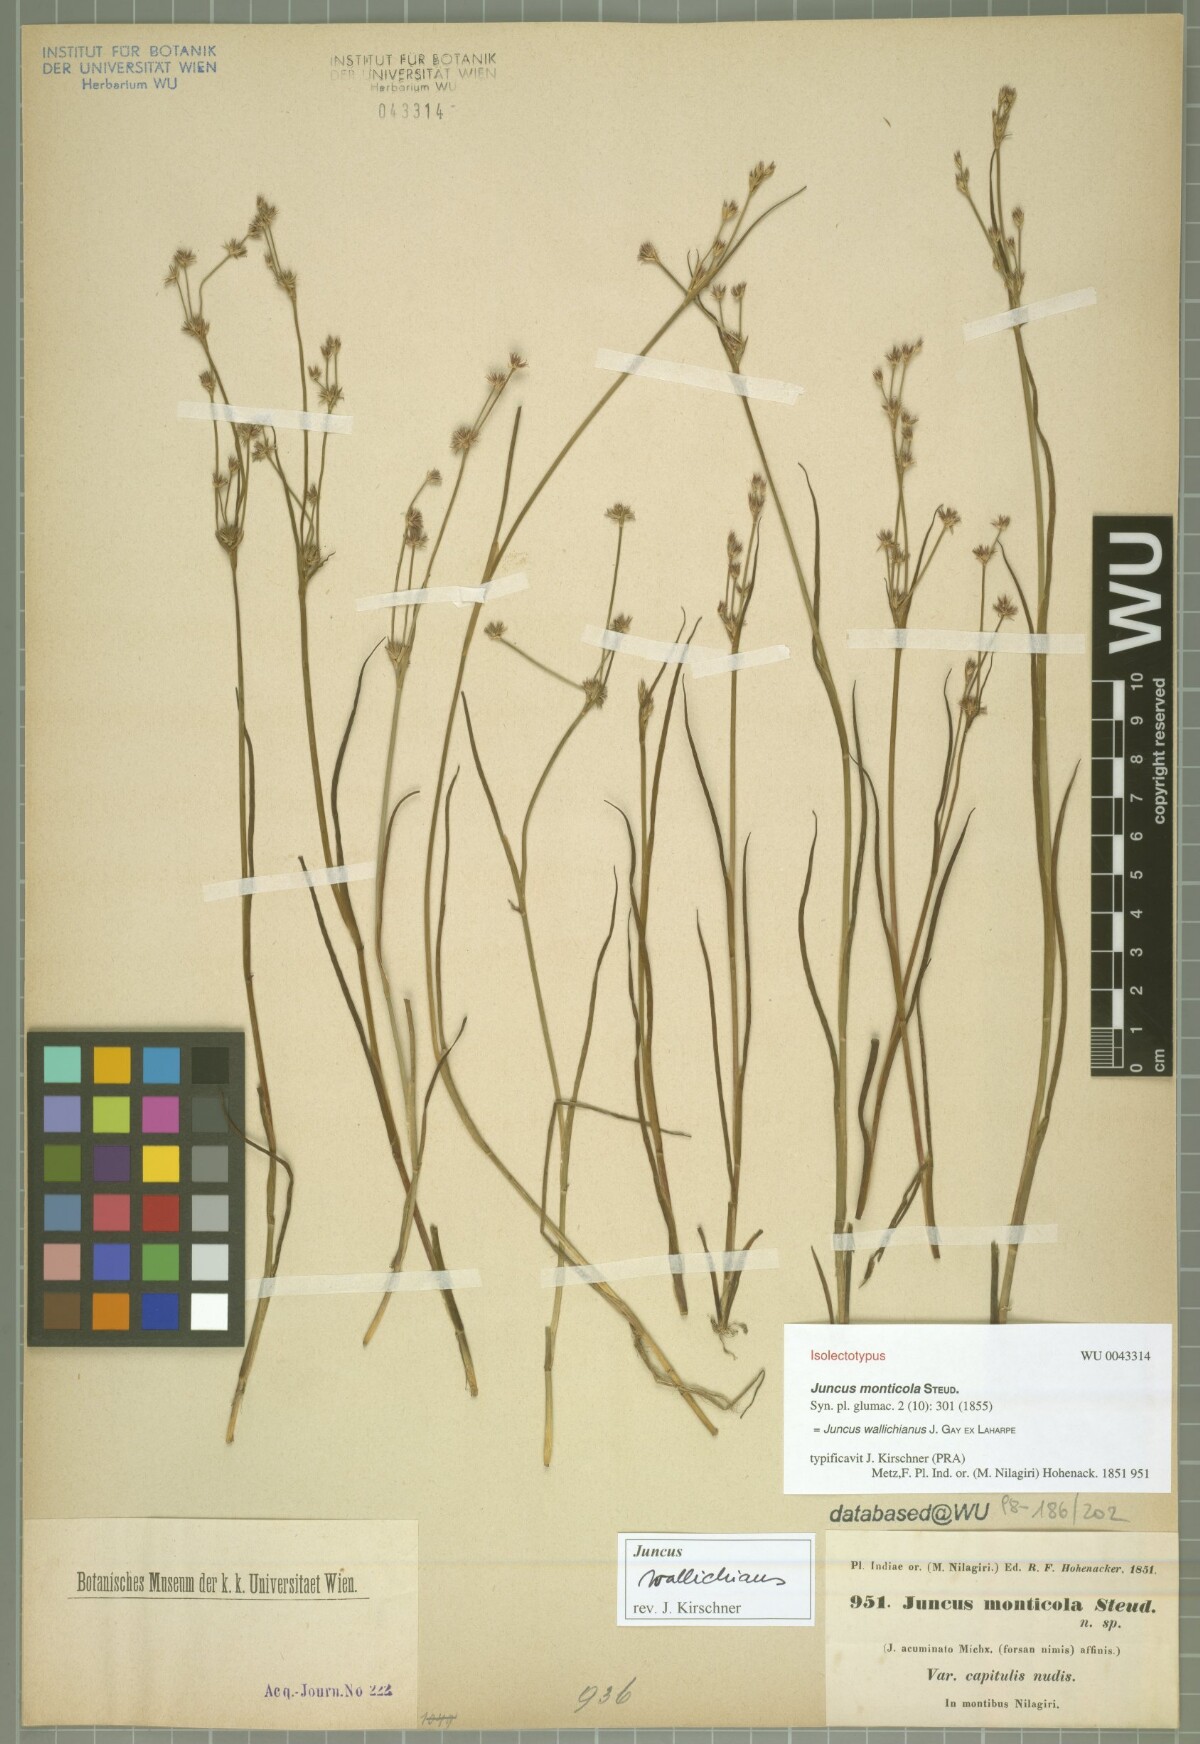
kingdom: Plantae
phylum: Tracheophyta
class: Liliopsida
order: Poales
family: Juncaceae
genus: Juncus
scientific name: Juncus wallichianus
